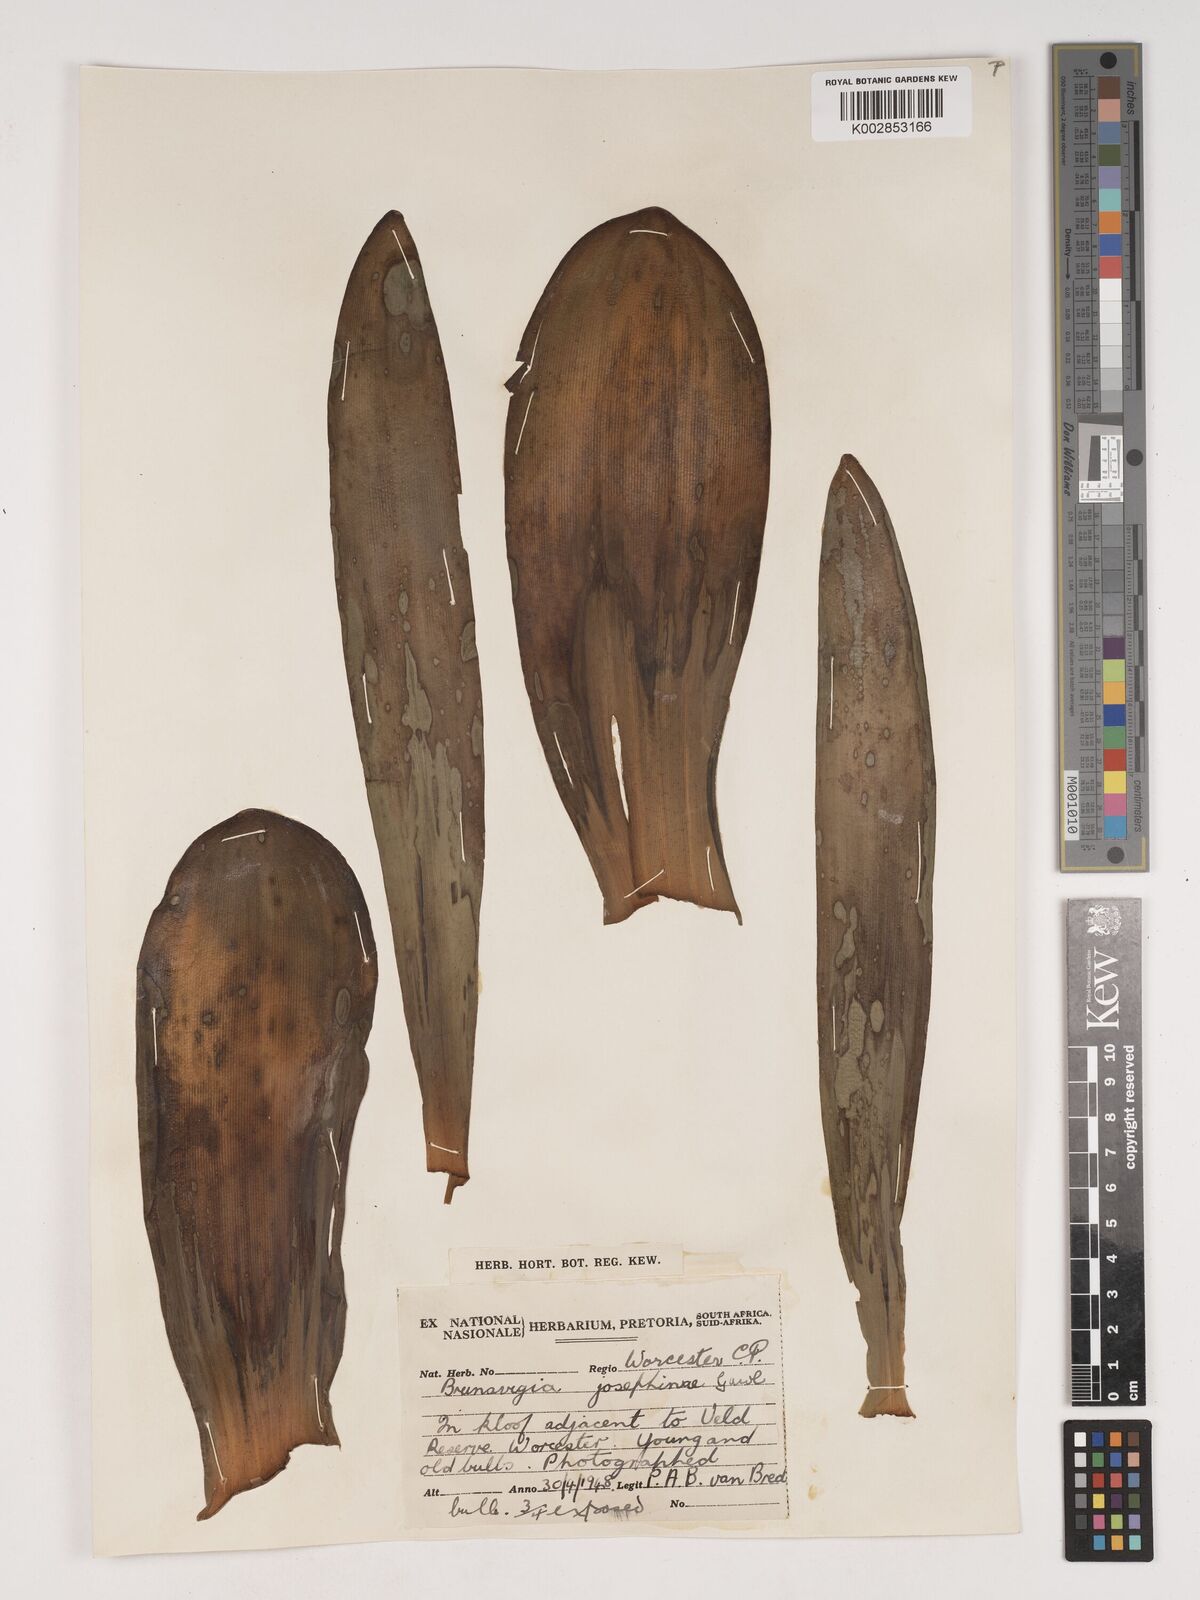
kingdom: Plantae
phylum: Tracheophyta
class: Liliopsida
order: Asparagales
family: Amaryllidaceae
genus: Brunsvigia
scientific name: Brunsvigia josephinae
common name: Josephine's-lily
